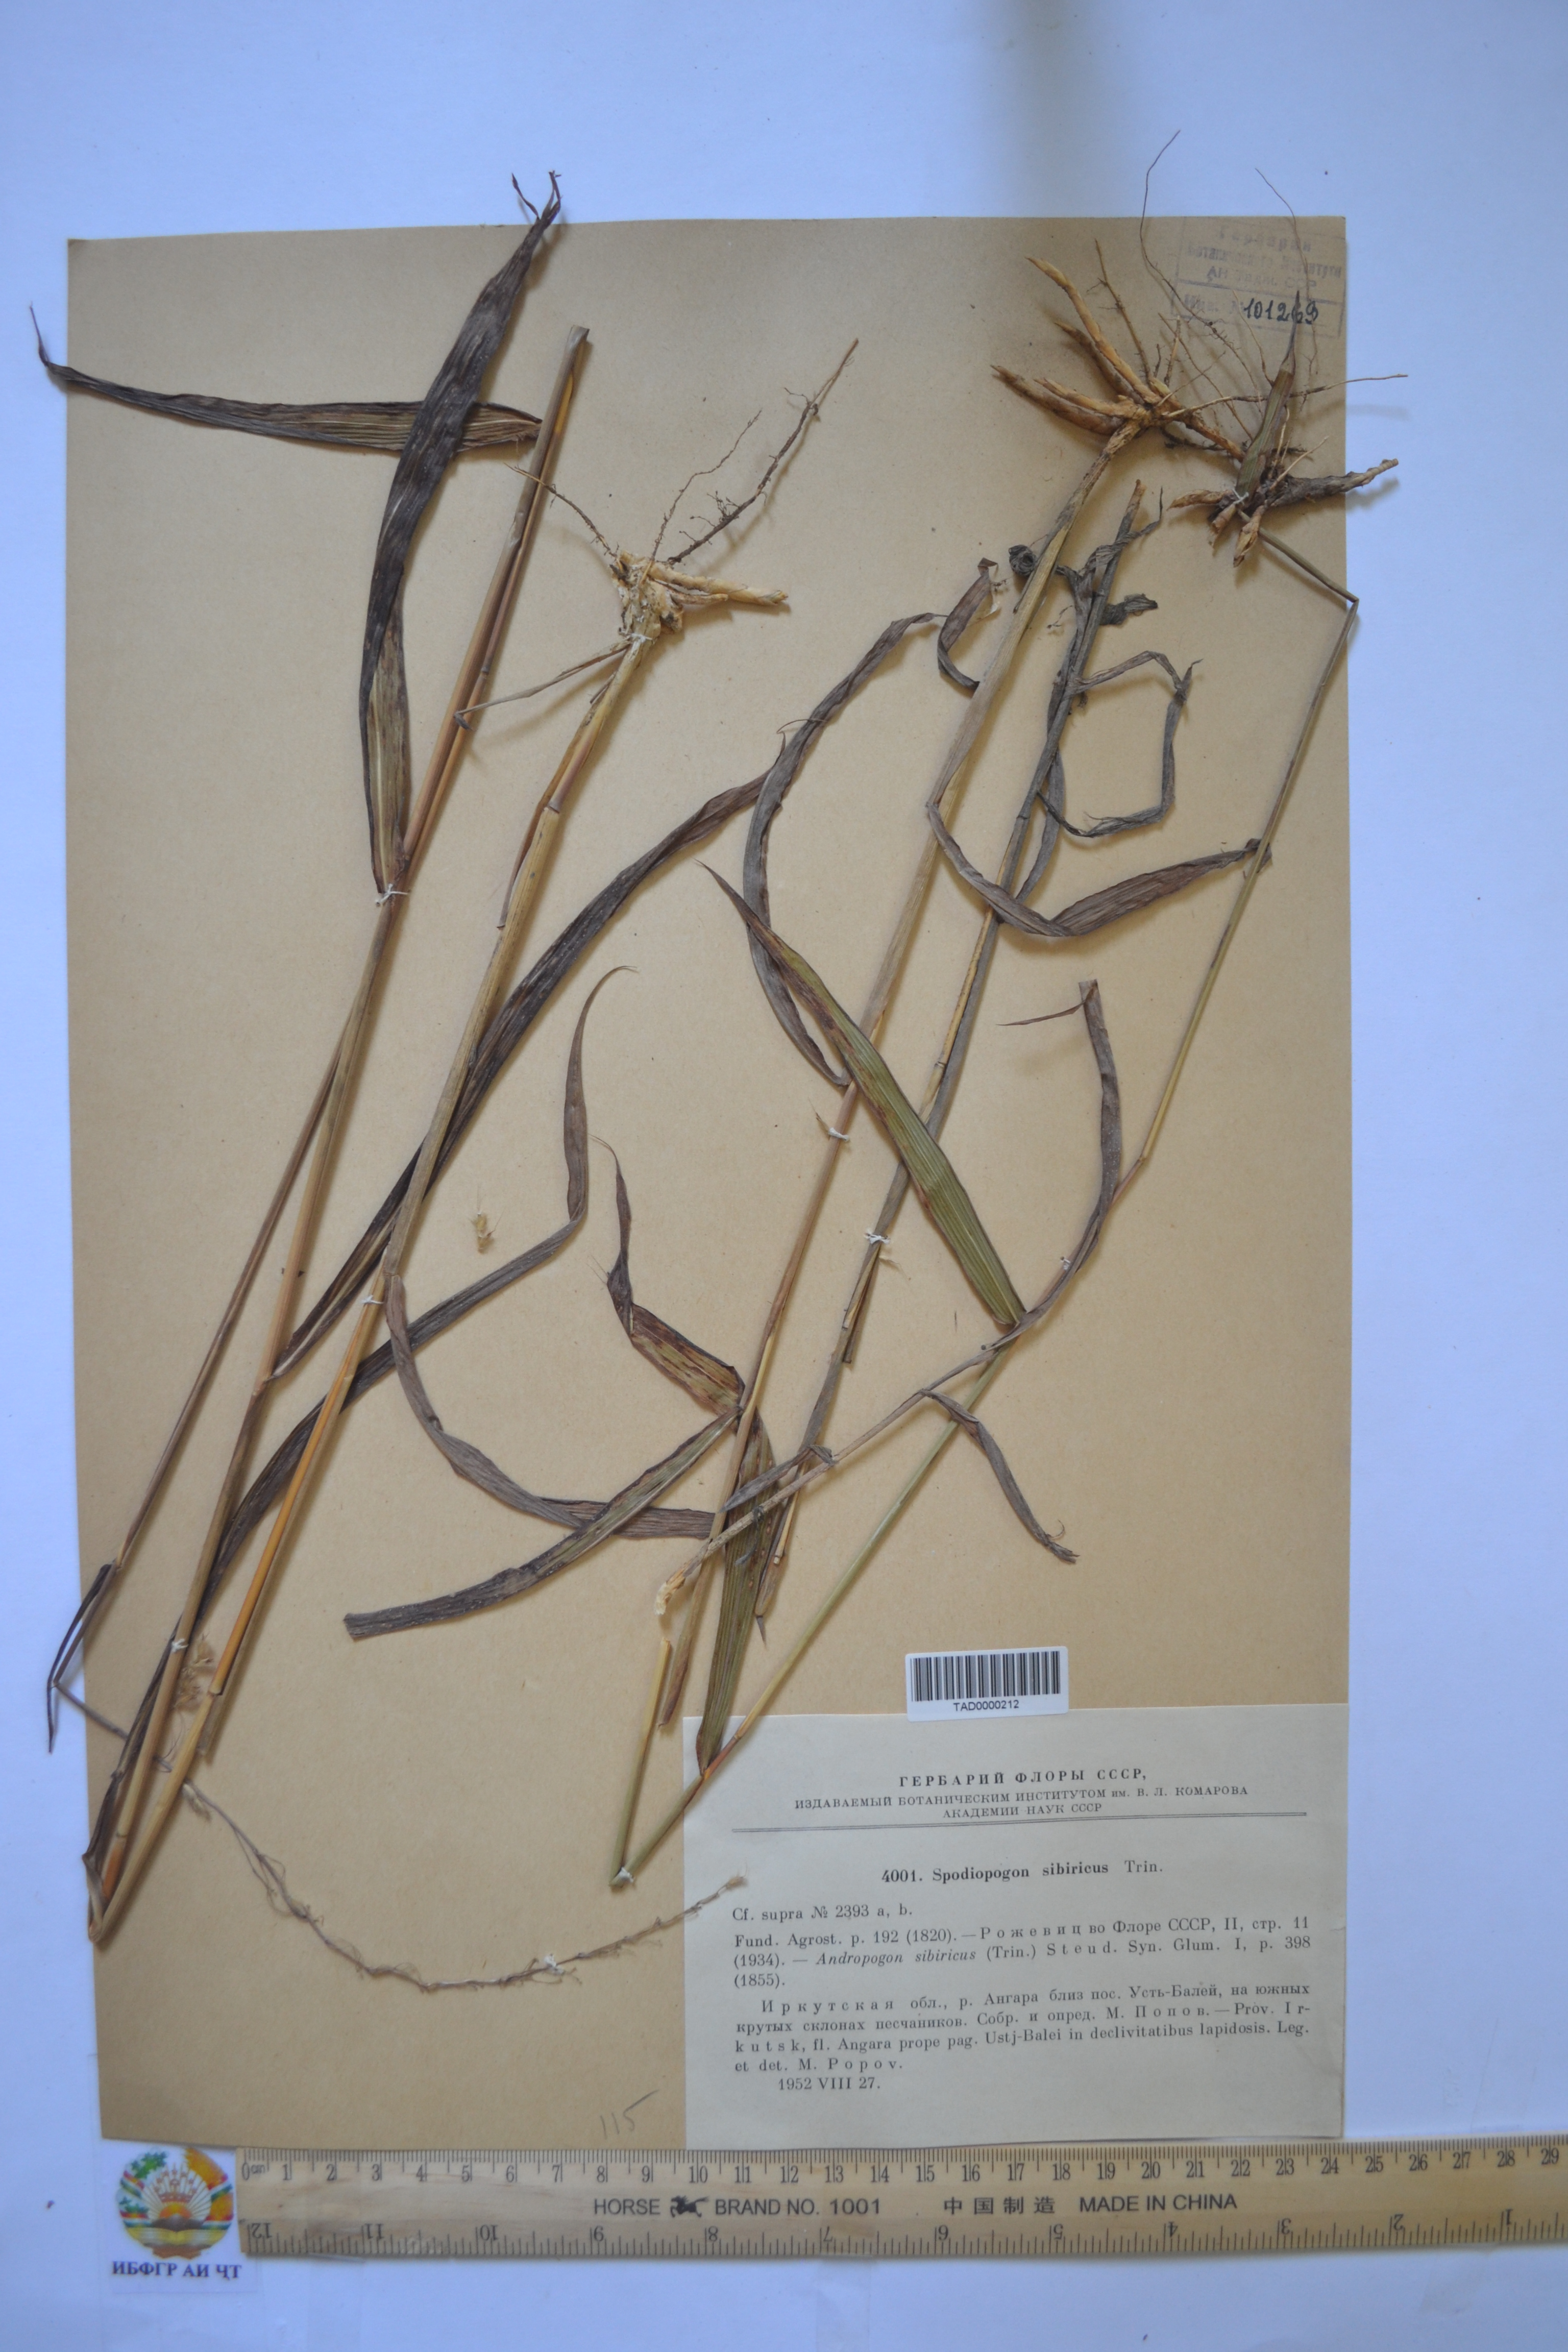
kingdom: Plantae
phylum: Tracheophyta
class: Liliopsida
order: Poales
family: Poaceae
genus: Spodiopogon
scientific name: Spodiopogon sibiricus
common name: Siberian graybeard
